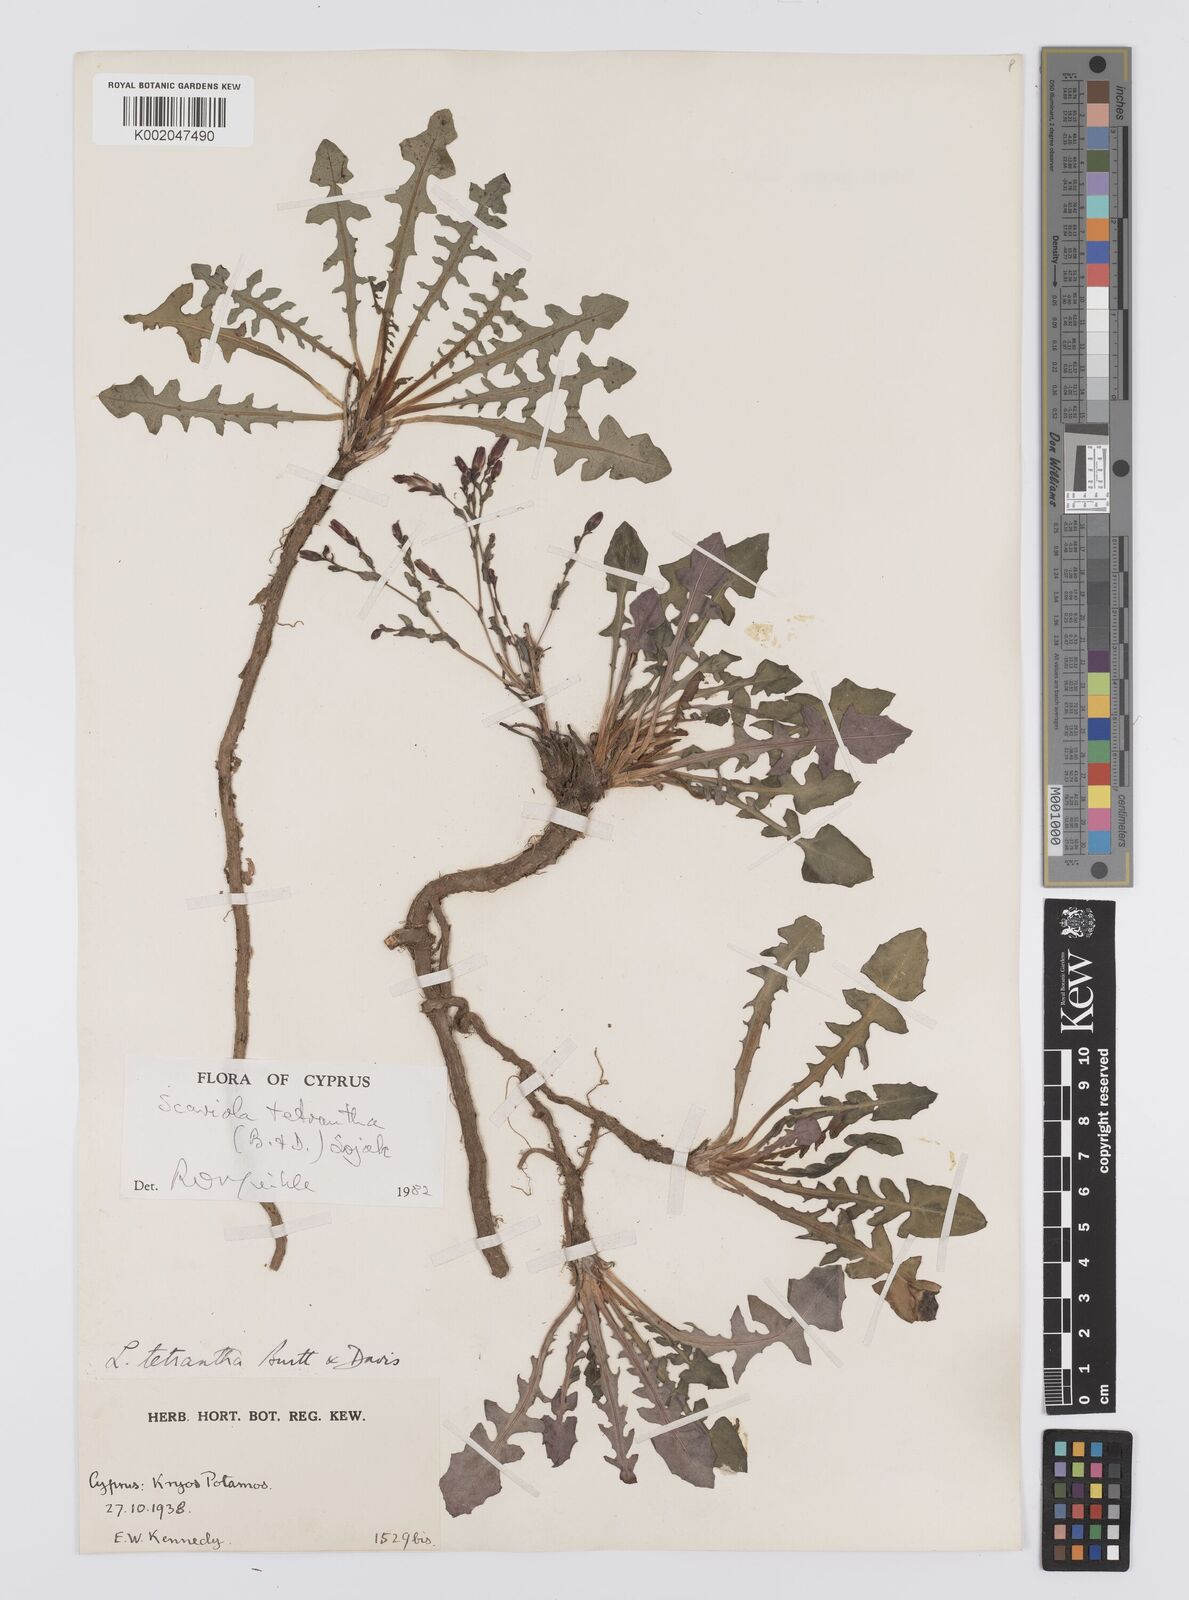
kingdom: Plantae
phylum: Tracheophyta
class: Magnoliopsida
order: Asterales
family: Asteraceae
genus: Lactuca
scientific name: Lactuca tetrantha
